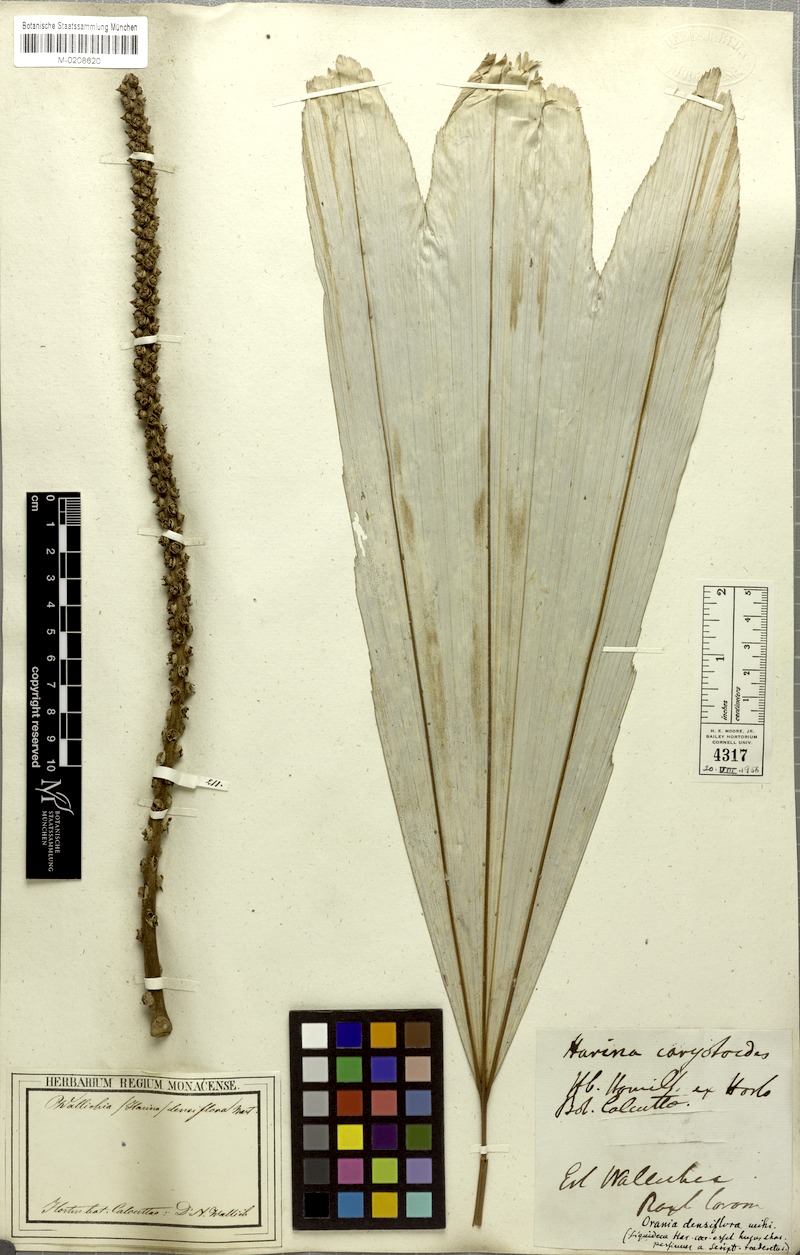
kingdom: Plantae
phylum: Tracheophyta
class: Liliopsida
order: Arecales
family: Arecaceae
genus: Wallichia
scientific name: Wallichia oblongifolia
